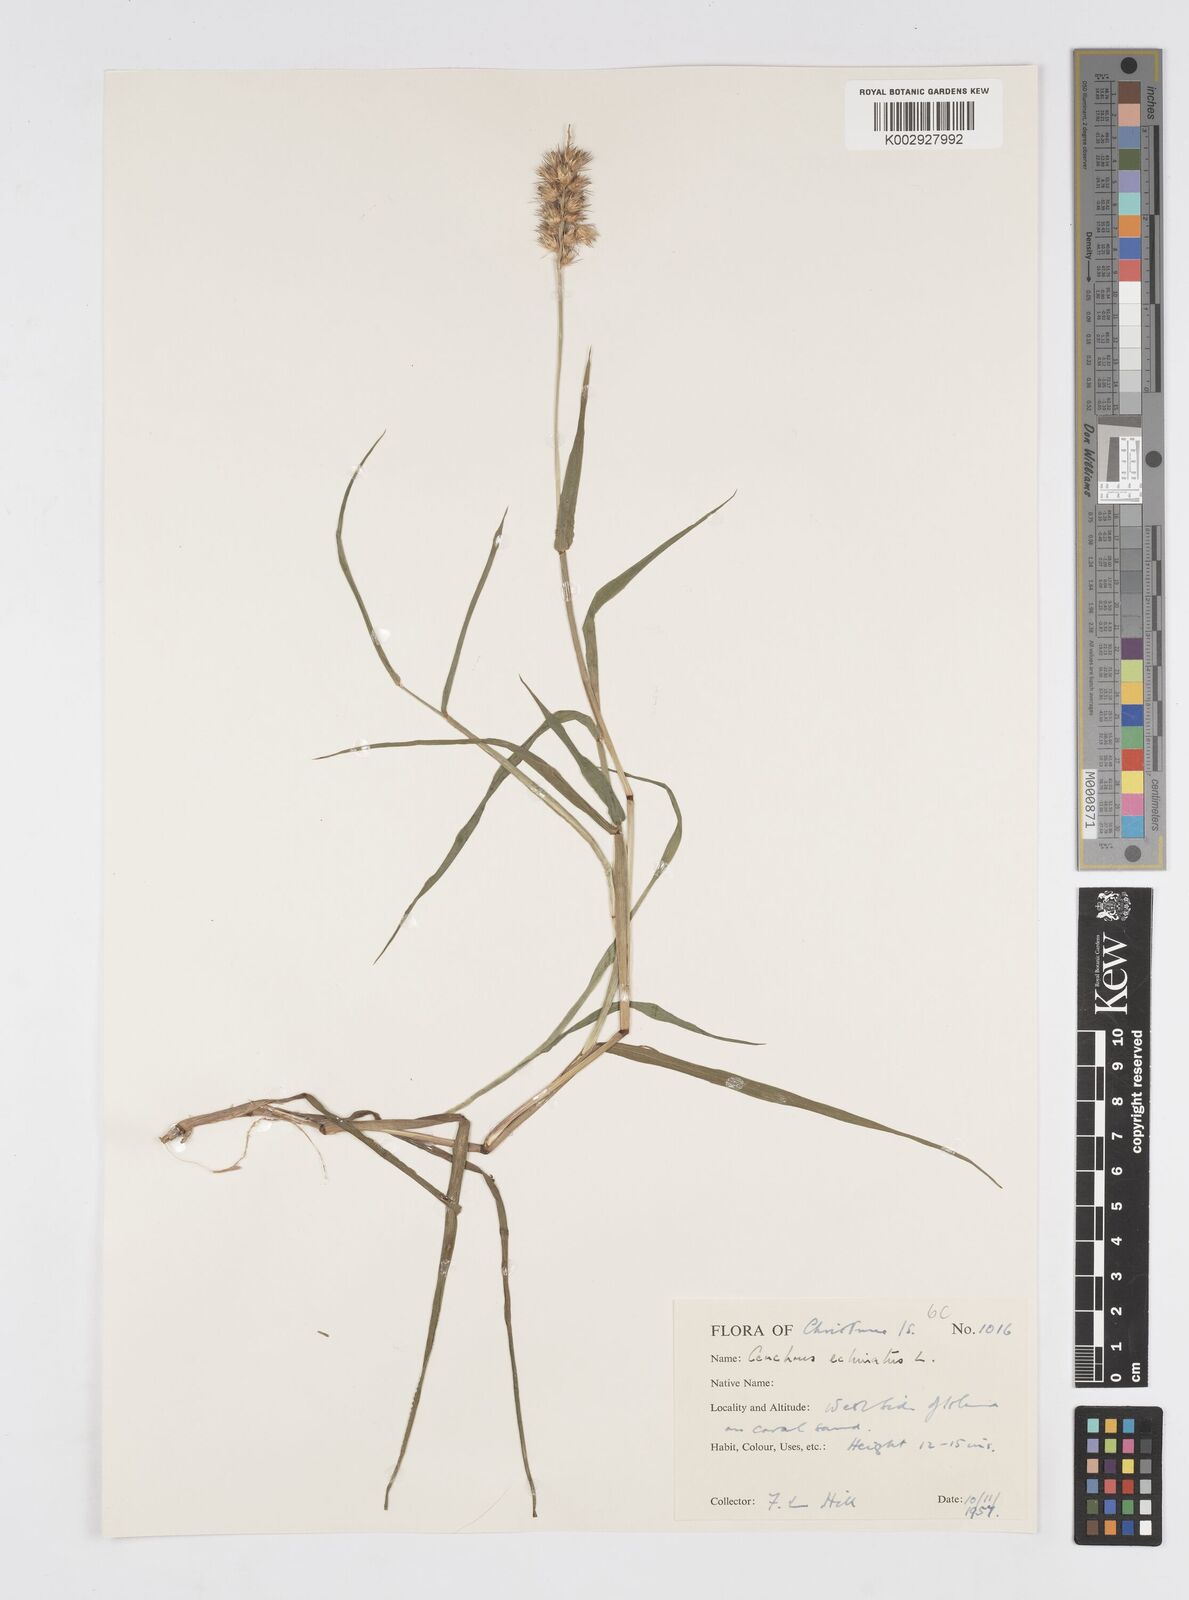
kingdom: Plantae
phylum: Tracheophyta
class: Liliopsida
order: Poales
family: Poaceae
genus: Cenchrus
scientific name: Cenchrus echinatus
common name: Southern sandbur
